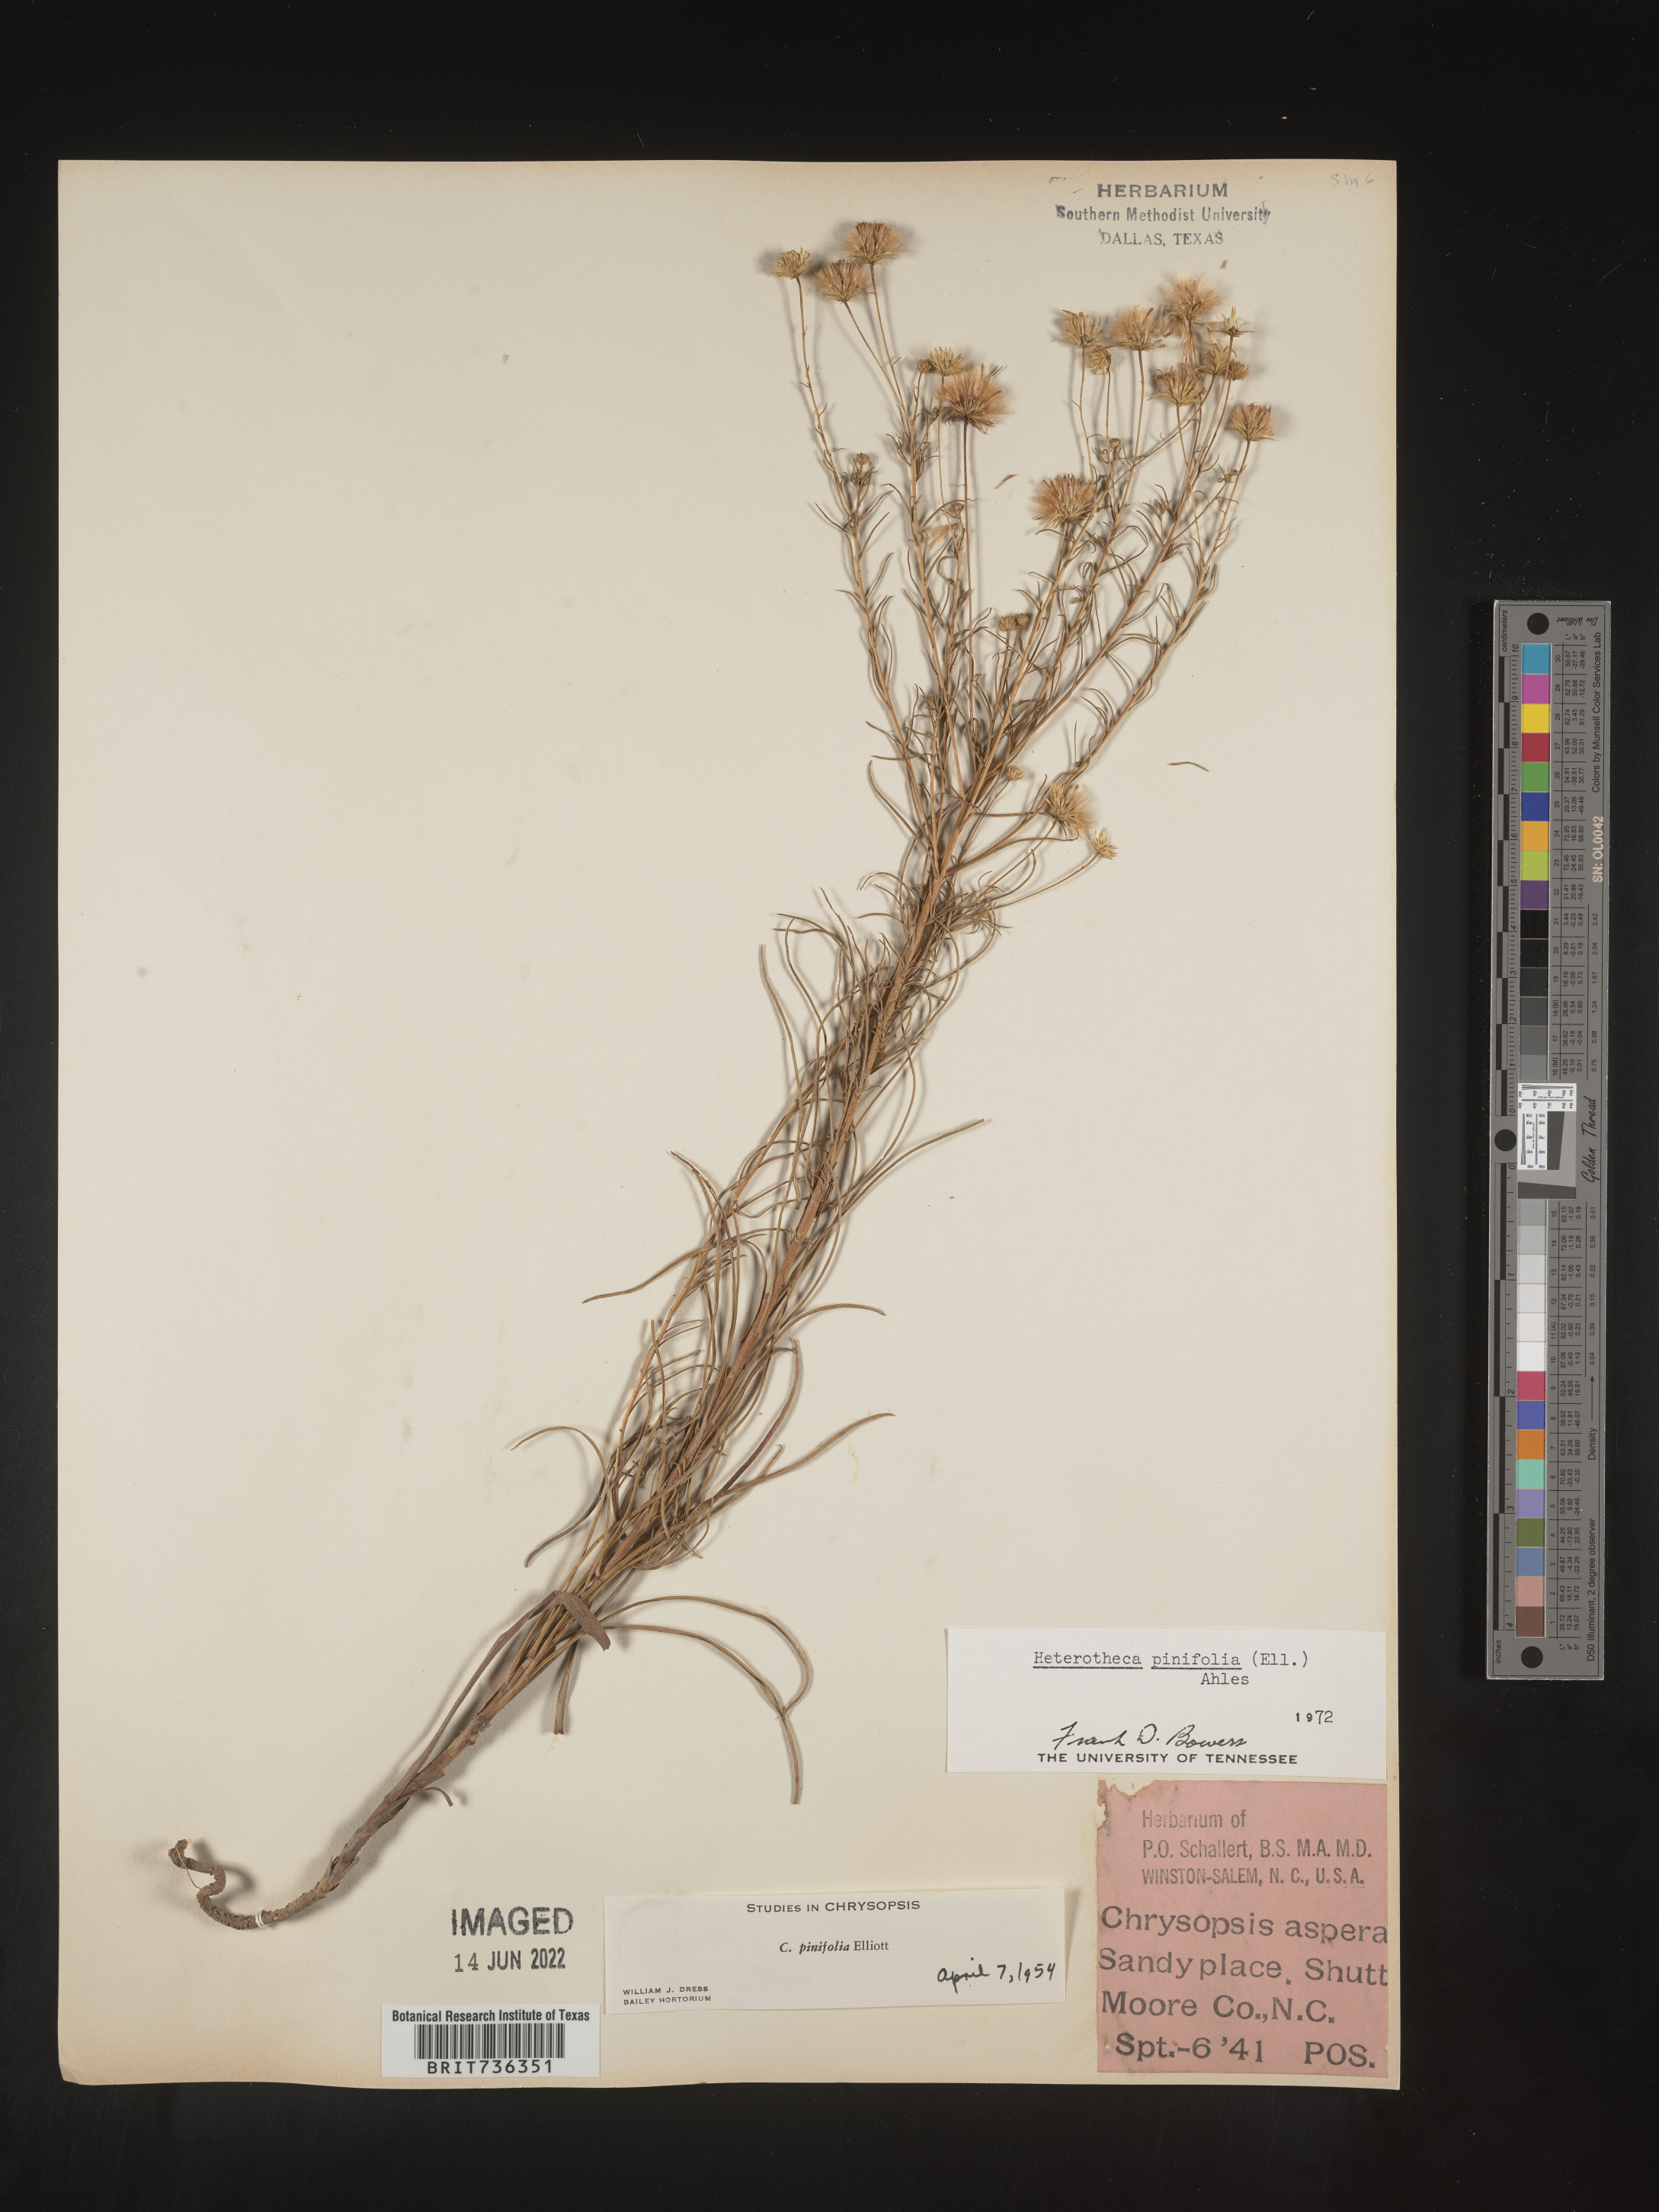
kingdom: Plantae
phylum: Tracheophyta
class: Magnoliopsida
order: Asterales
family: Asteraceae
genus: Pityopsis
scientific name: Pityopsis pinifolia
